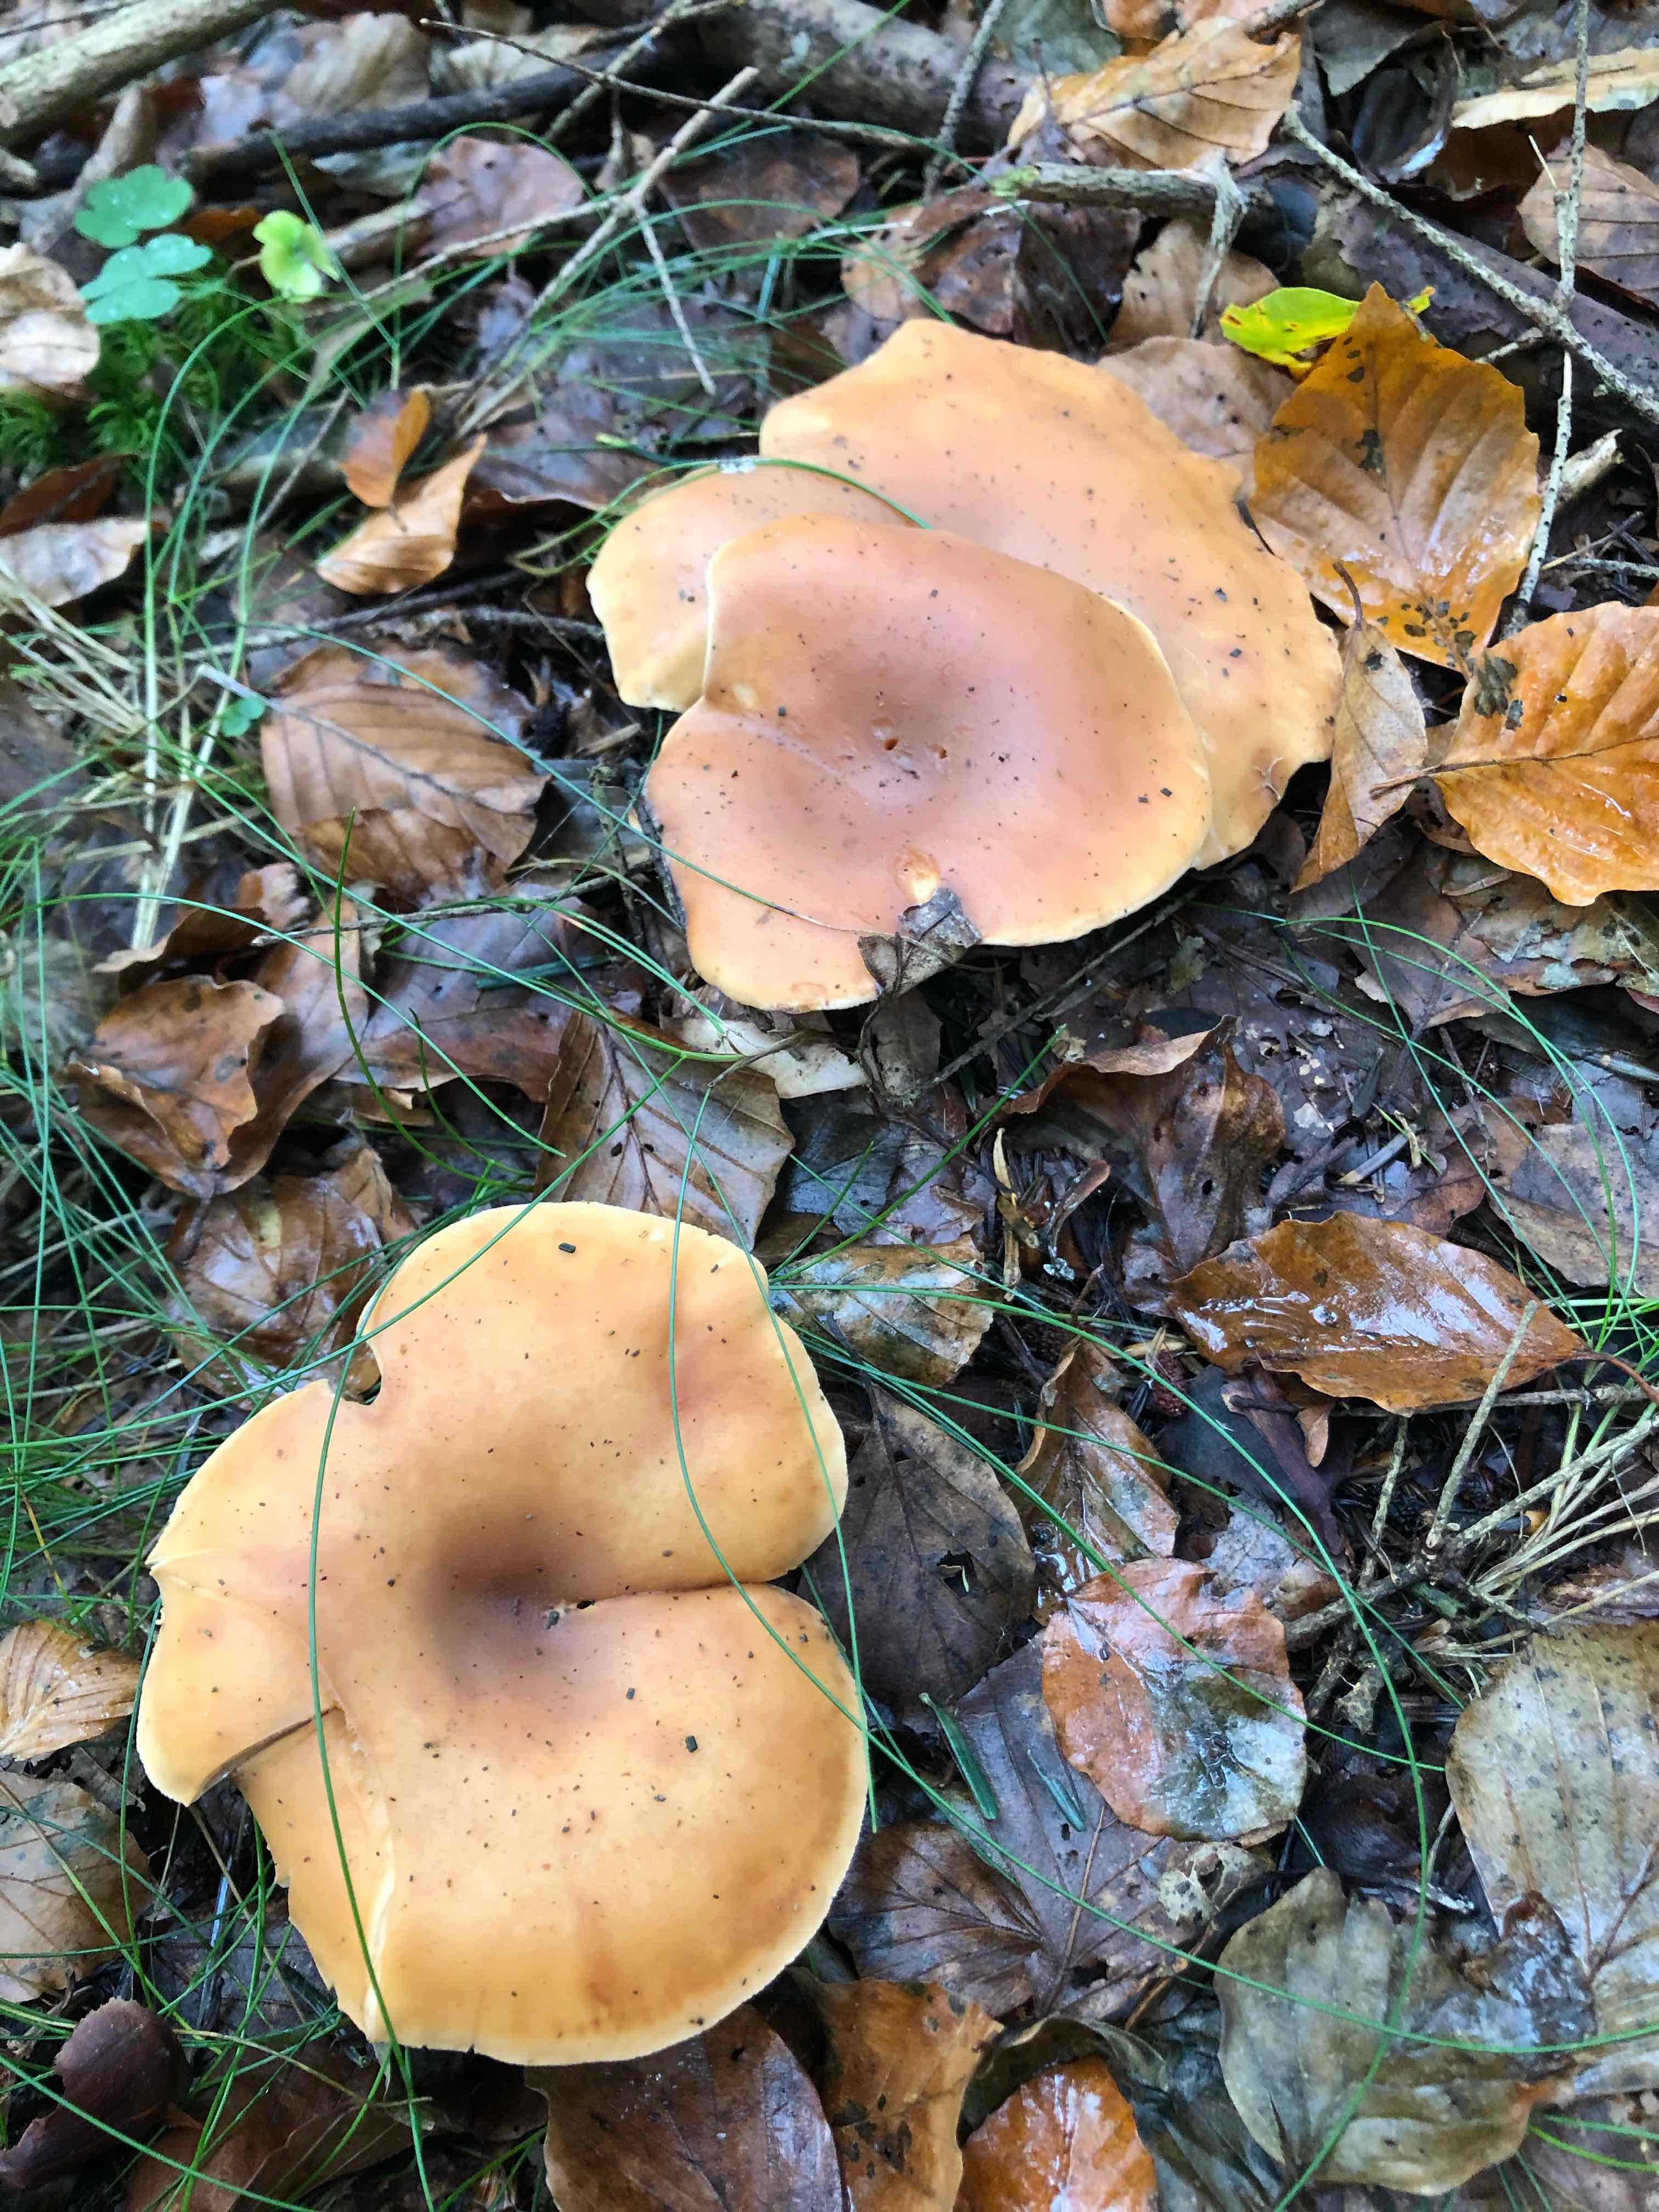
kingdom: Fungi
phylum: Basidiomycota
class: Agaricomycetes
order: Agaricales
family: Tricholomataceae
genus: Paralepista
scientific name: Paralepista flaccida
